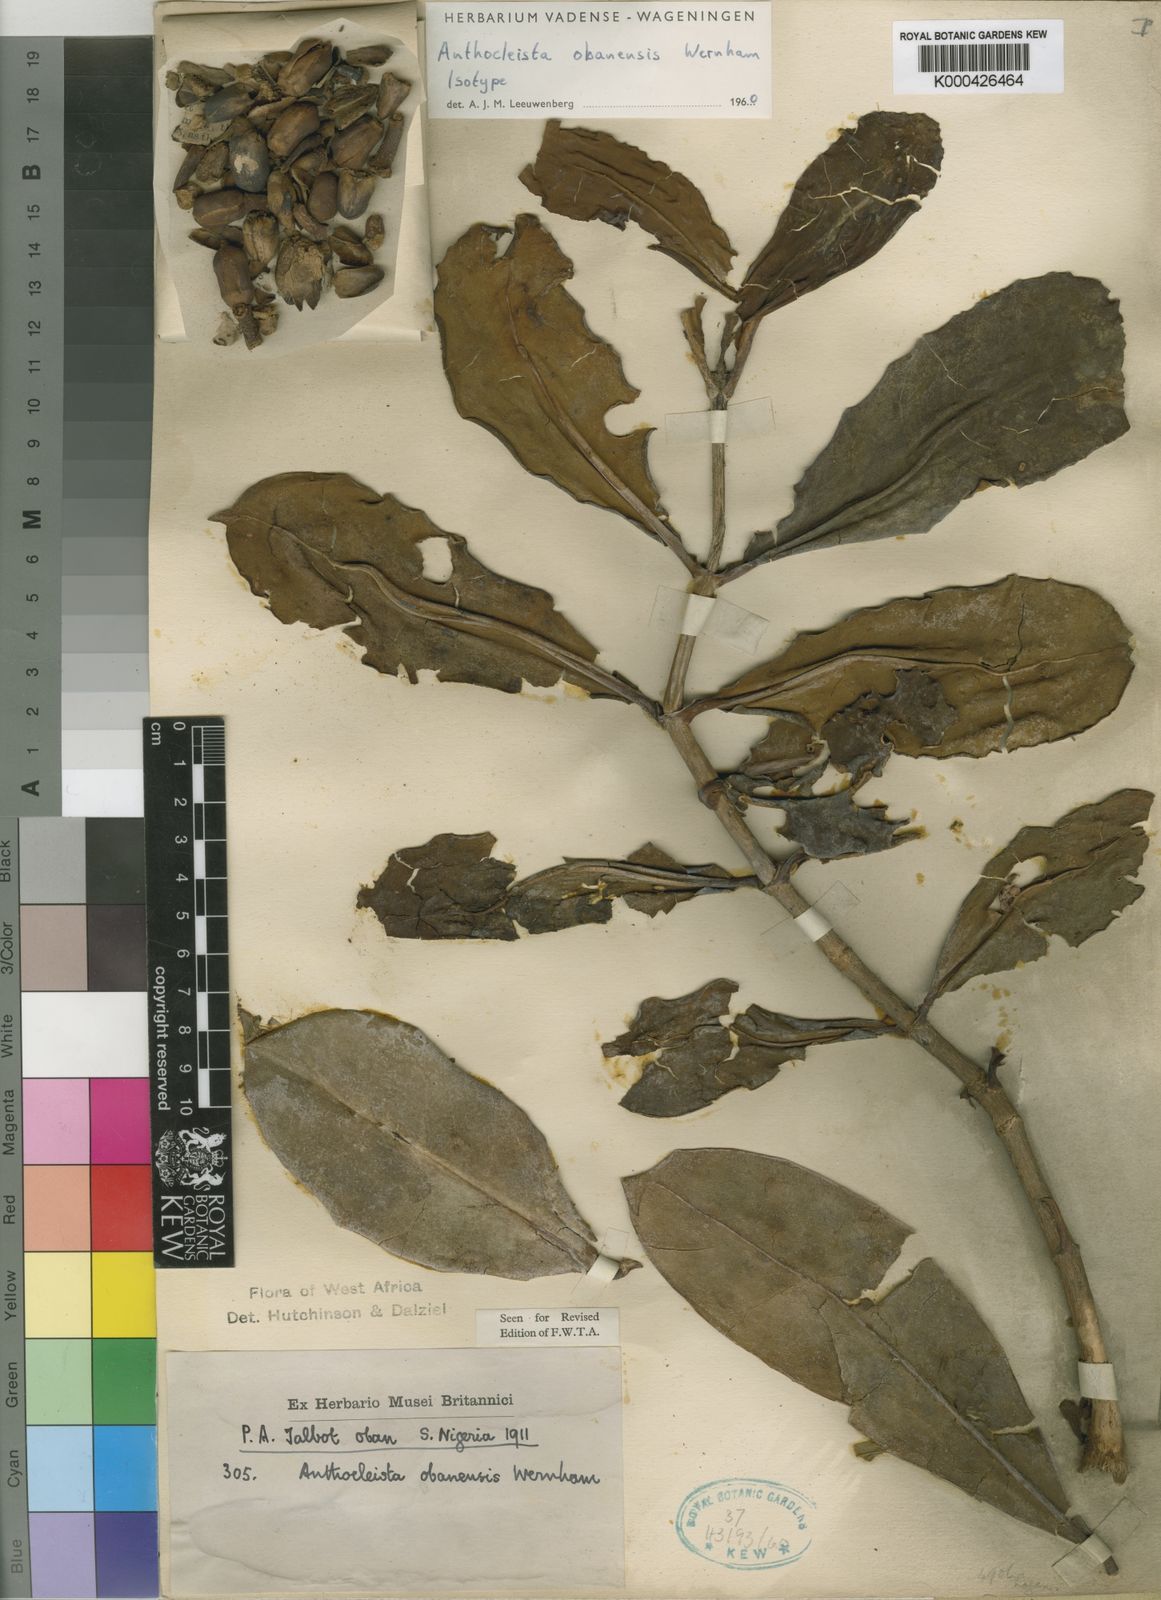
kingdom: Plantae
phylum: Tracheophyta
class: Magnoliopsida
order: Gentianales
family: Gentianaceae
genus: Anthocleista
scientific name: Anthocleista obanensis
